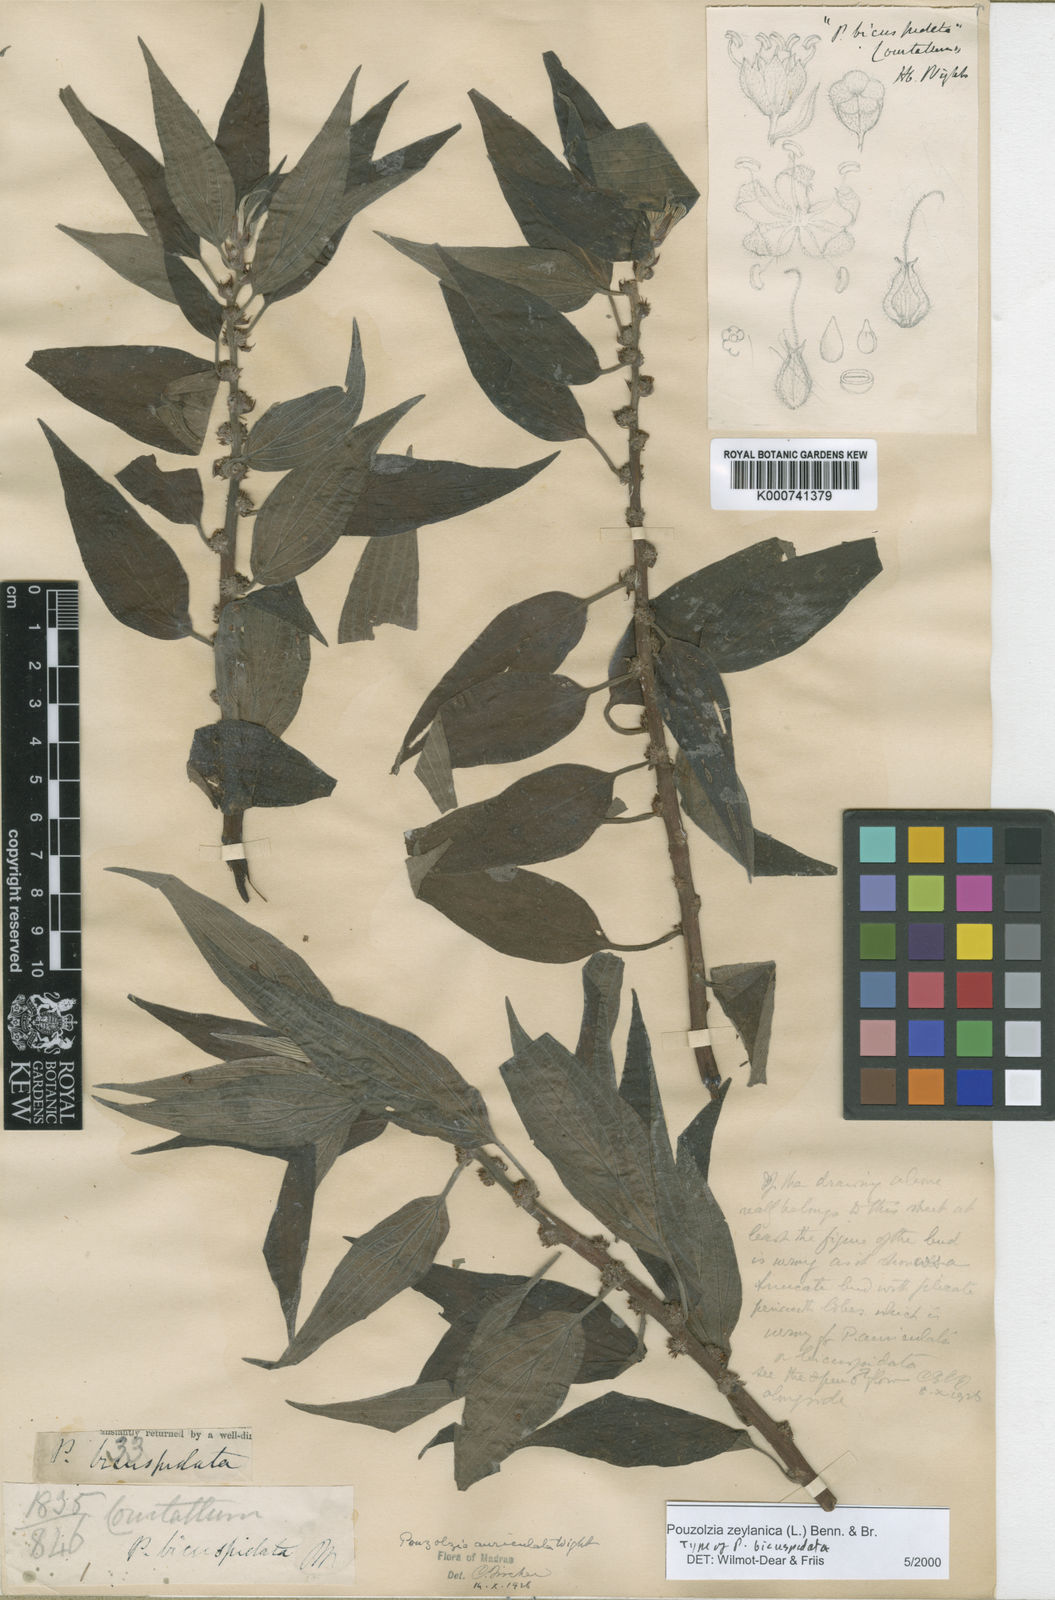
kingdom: Plantae
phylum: Tracheophyta
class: Magnoliopsida
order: Rosales
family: Urticaceae
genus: Pouzolzia
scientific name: Pouzolzia zeylanica
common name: Graceful pouzolzsbush
